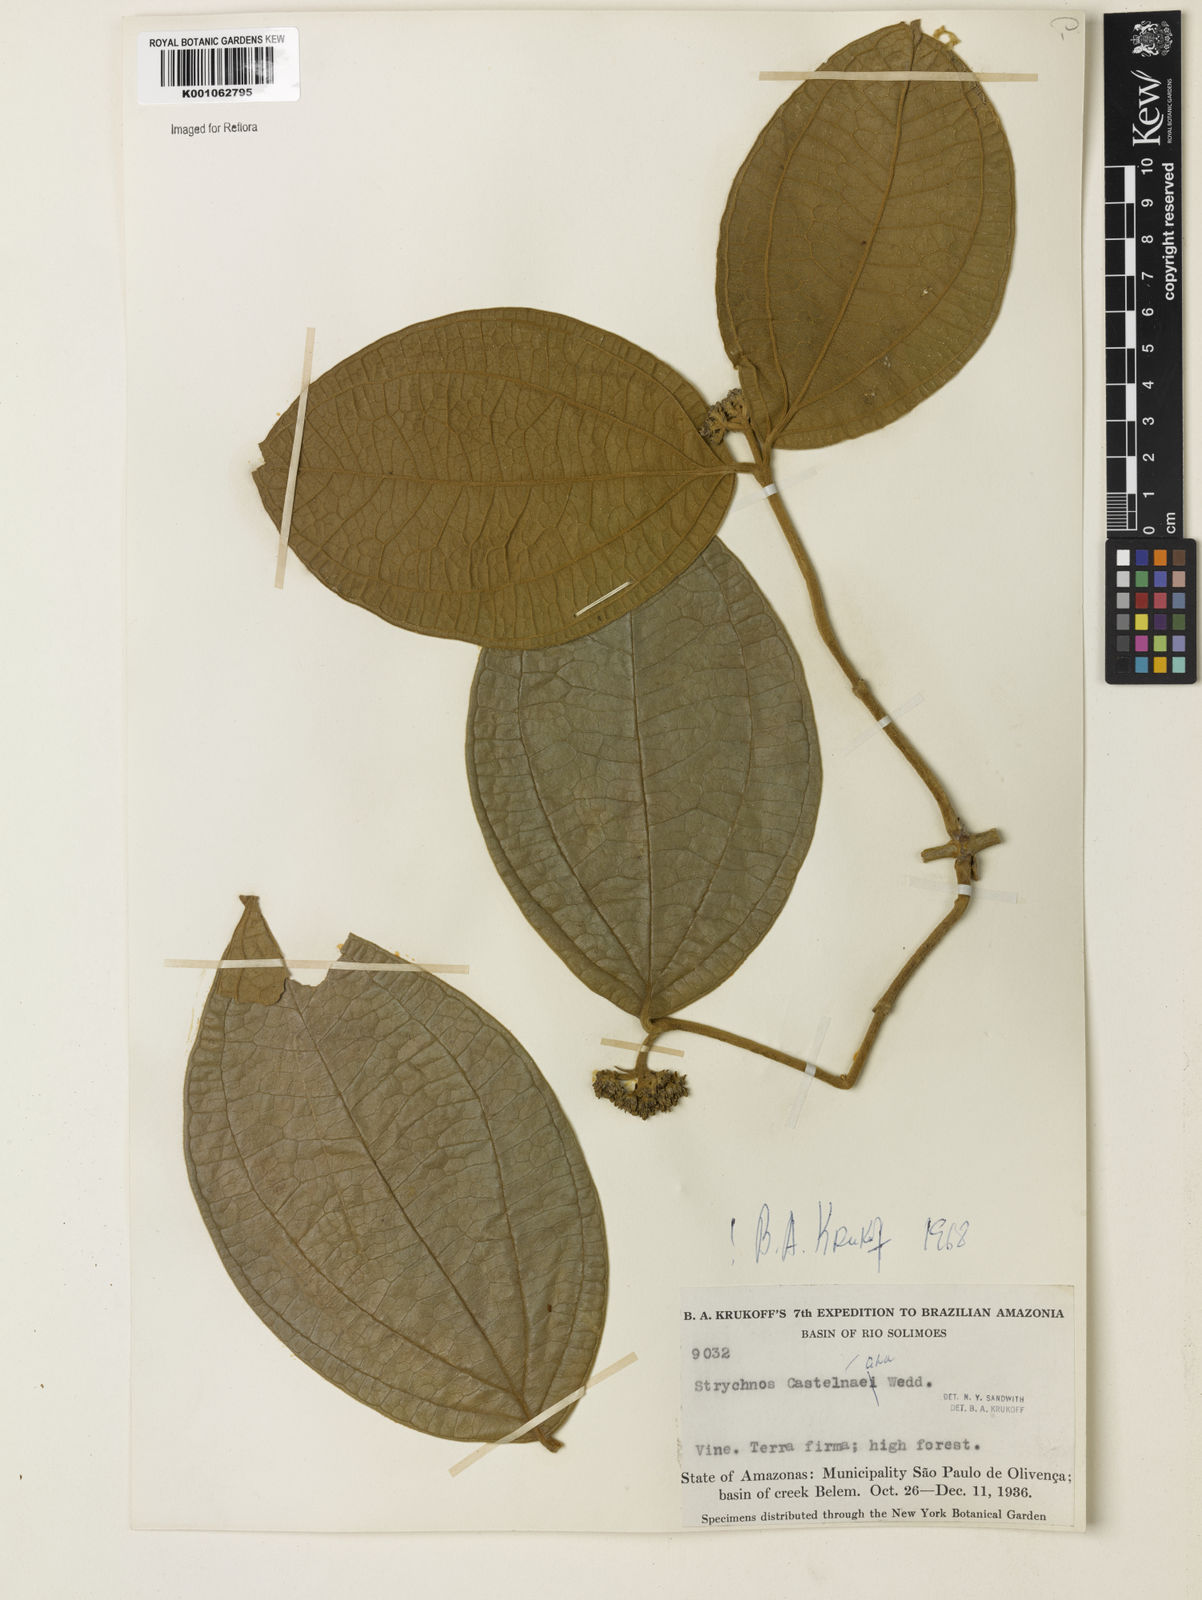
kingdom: Plantae
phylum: Tracheophyta
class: Magnoliopsida
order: Gentianales
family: Loganiaceae
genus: Strychnos
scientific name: Strychnos
